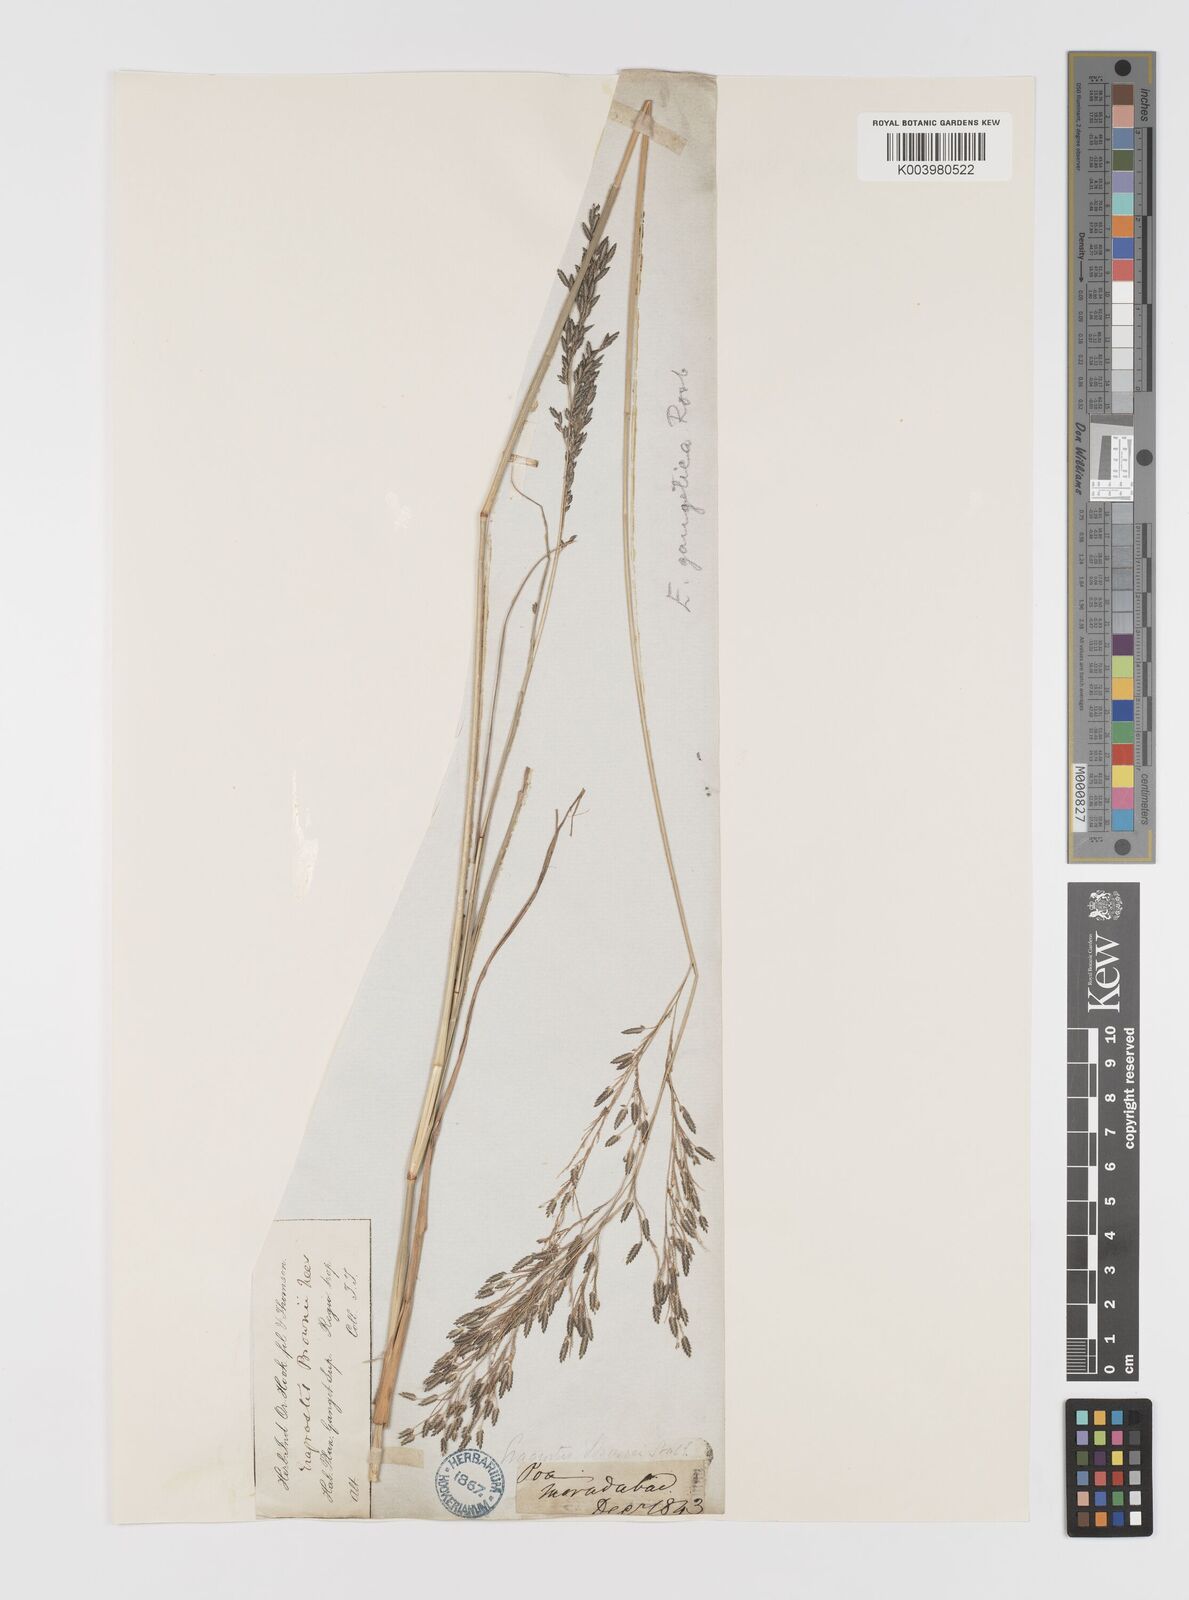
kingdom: Plantae
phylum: Tracheophyta
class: Liliopsida
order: Poales
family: Poaceae
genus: Eragrostis
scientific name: Eragrostis atrovirens
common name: Thalia lovegrass
